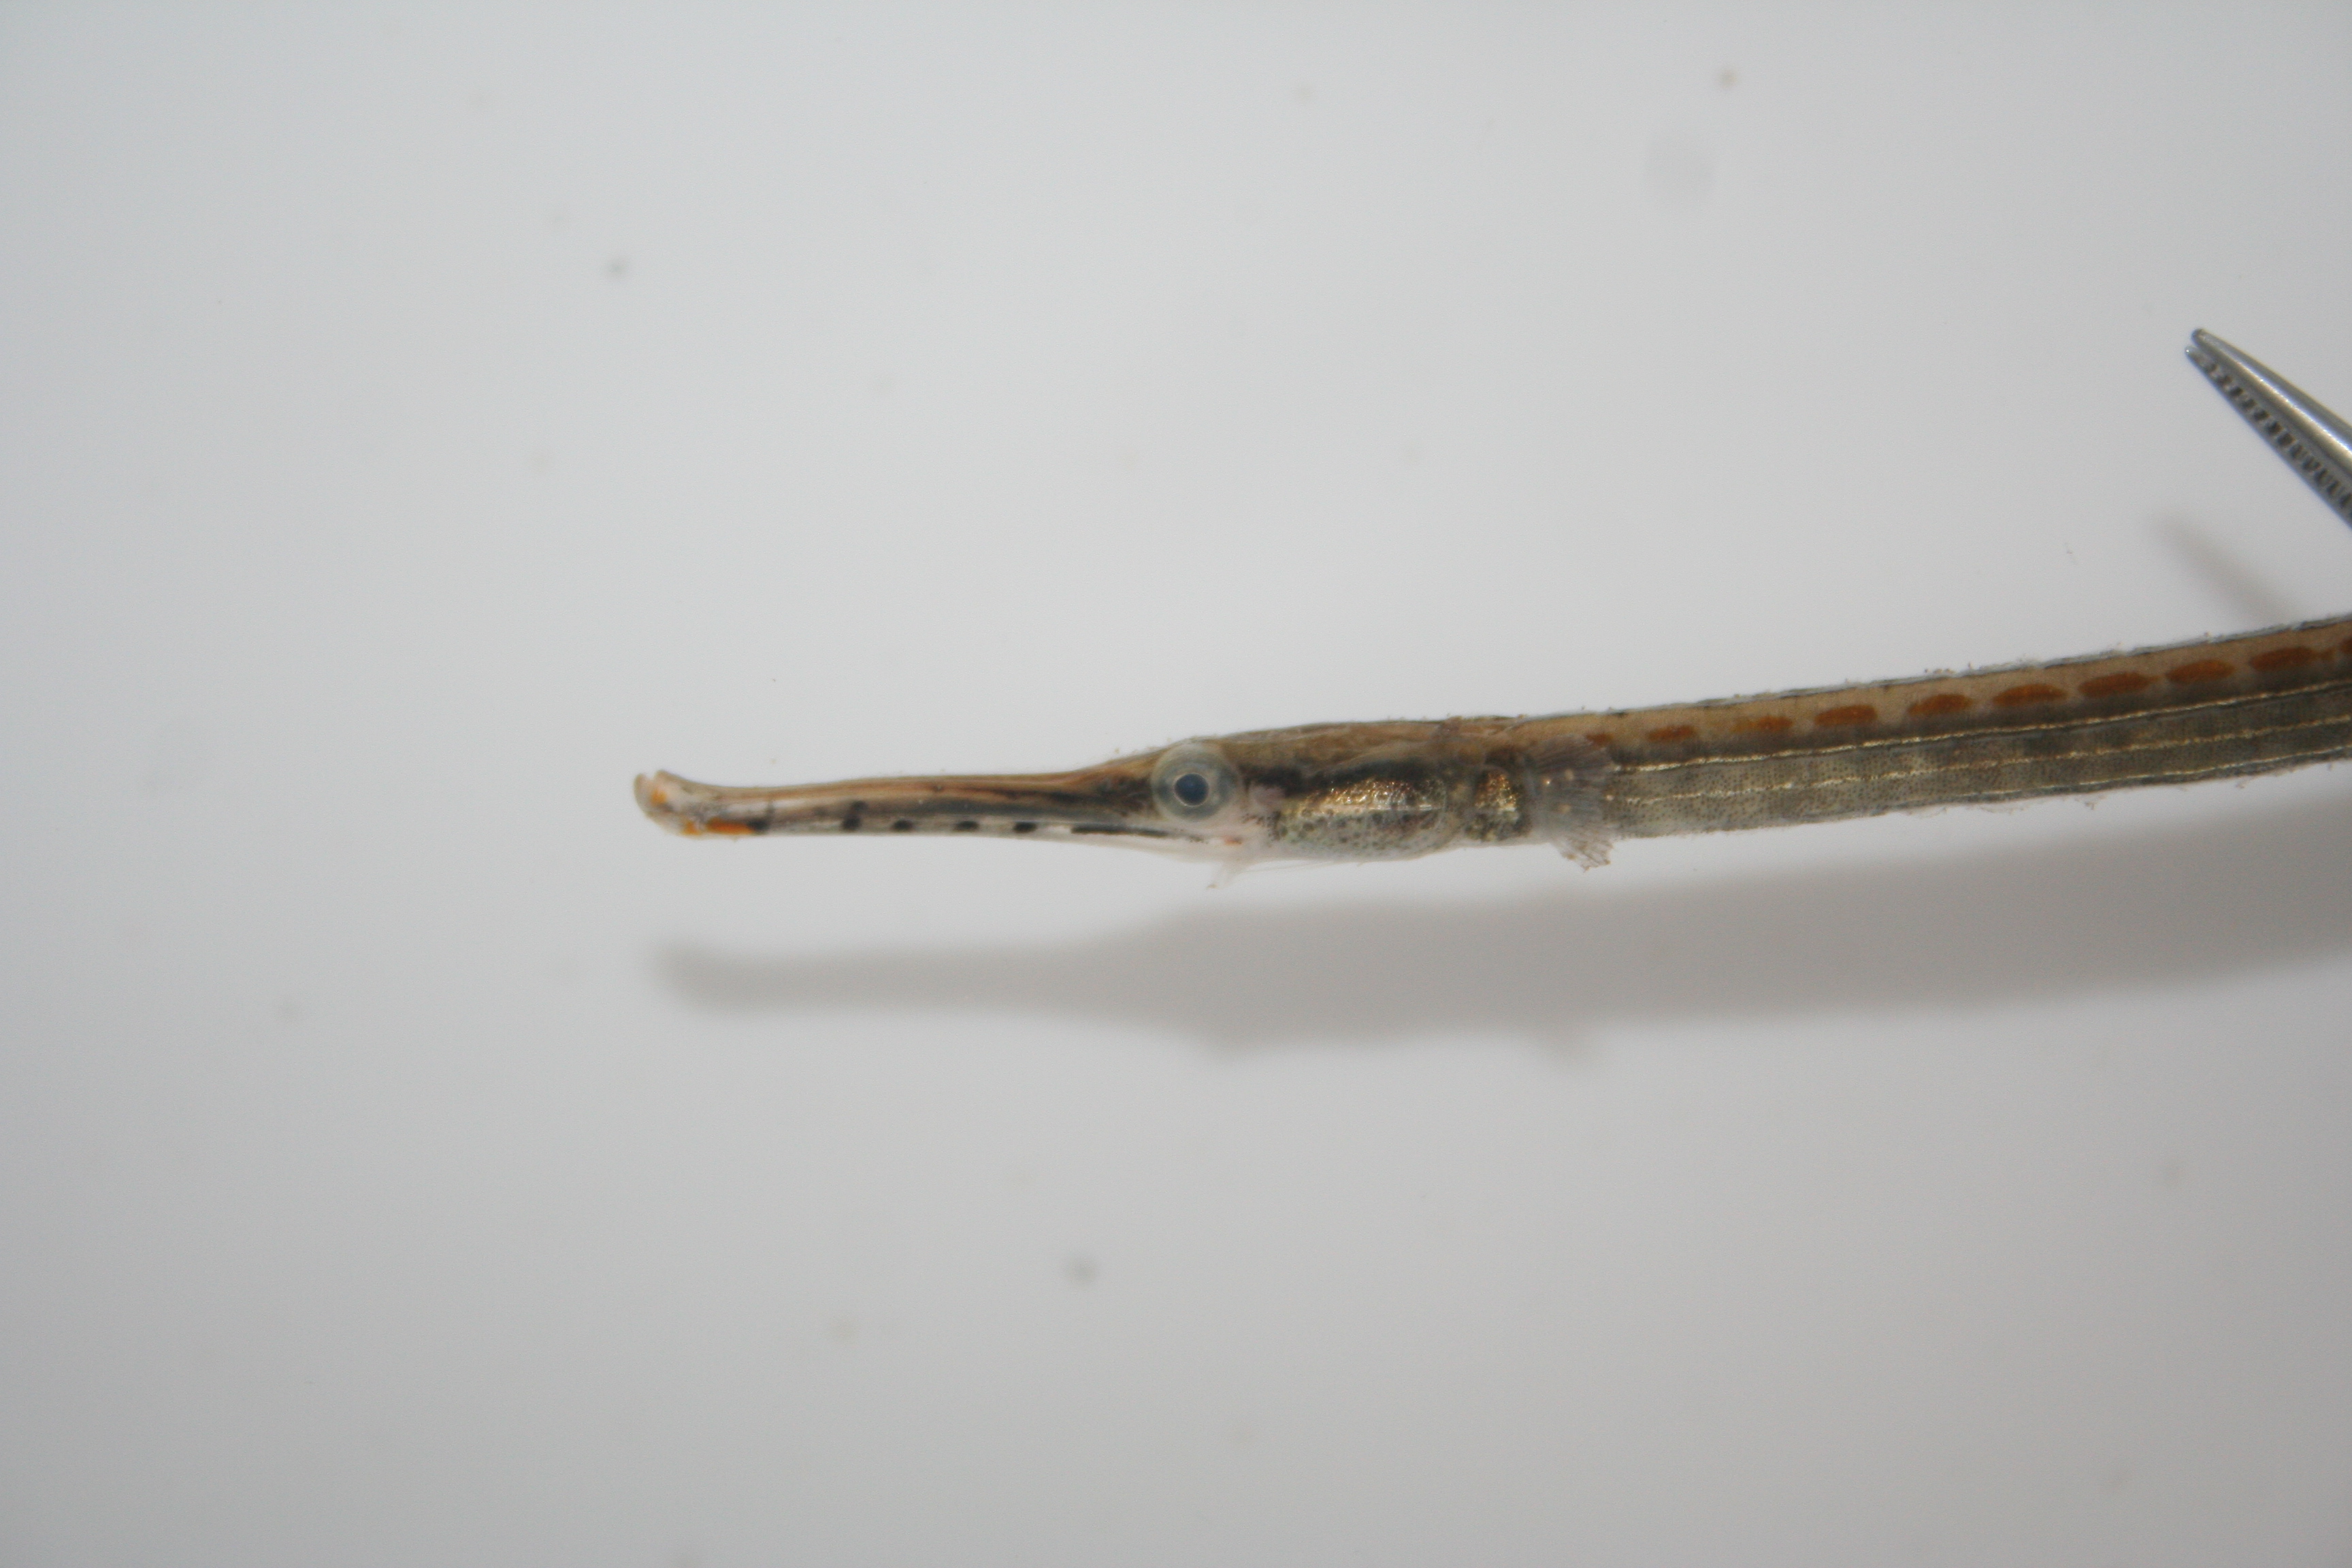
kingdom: Animalia
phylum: Chordata
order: Syngnathiformes
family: Syngnathidae
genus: Microphis
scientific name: Microphis aculeatus
